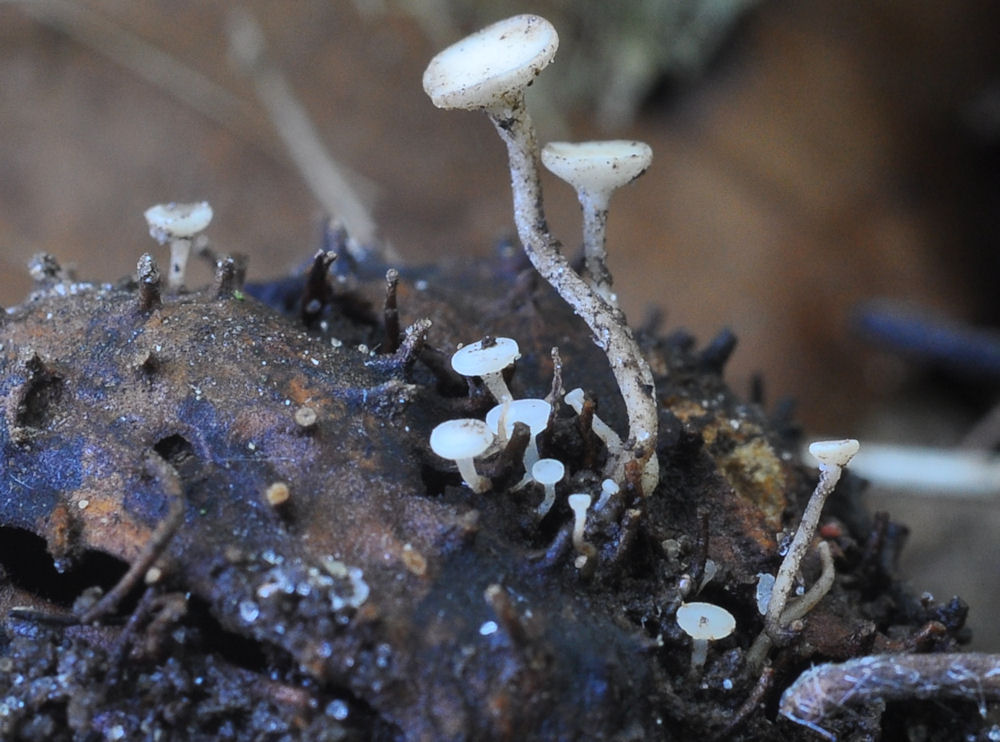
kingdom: Fungi
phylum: Ascomycota
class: Leotiomycetes
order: Helotiales
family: Helotiaceae
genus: Hymenoscyphus
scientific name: Hymenoscyphus rokebyensis
